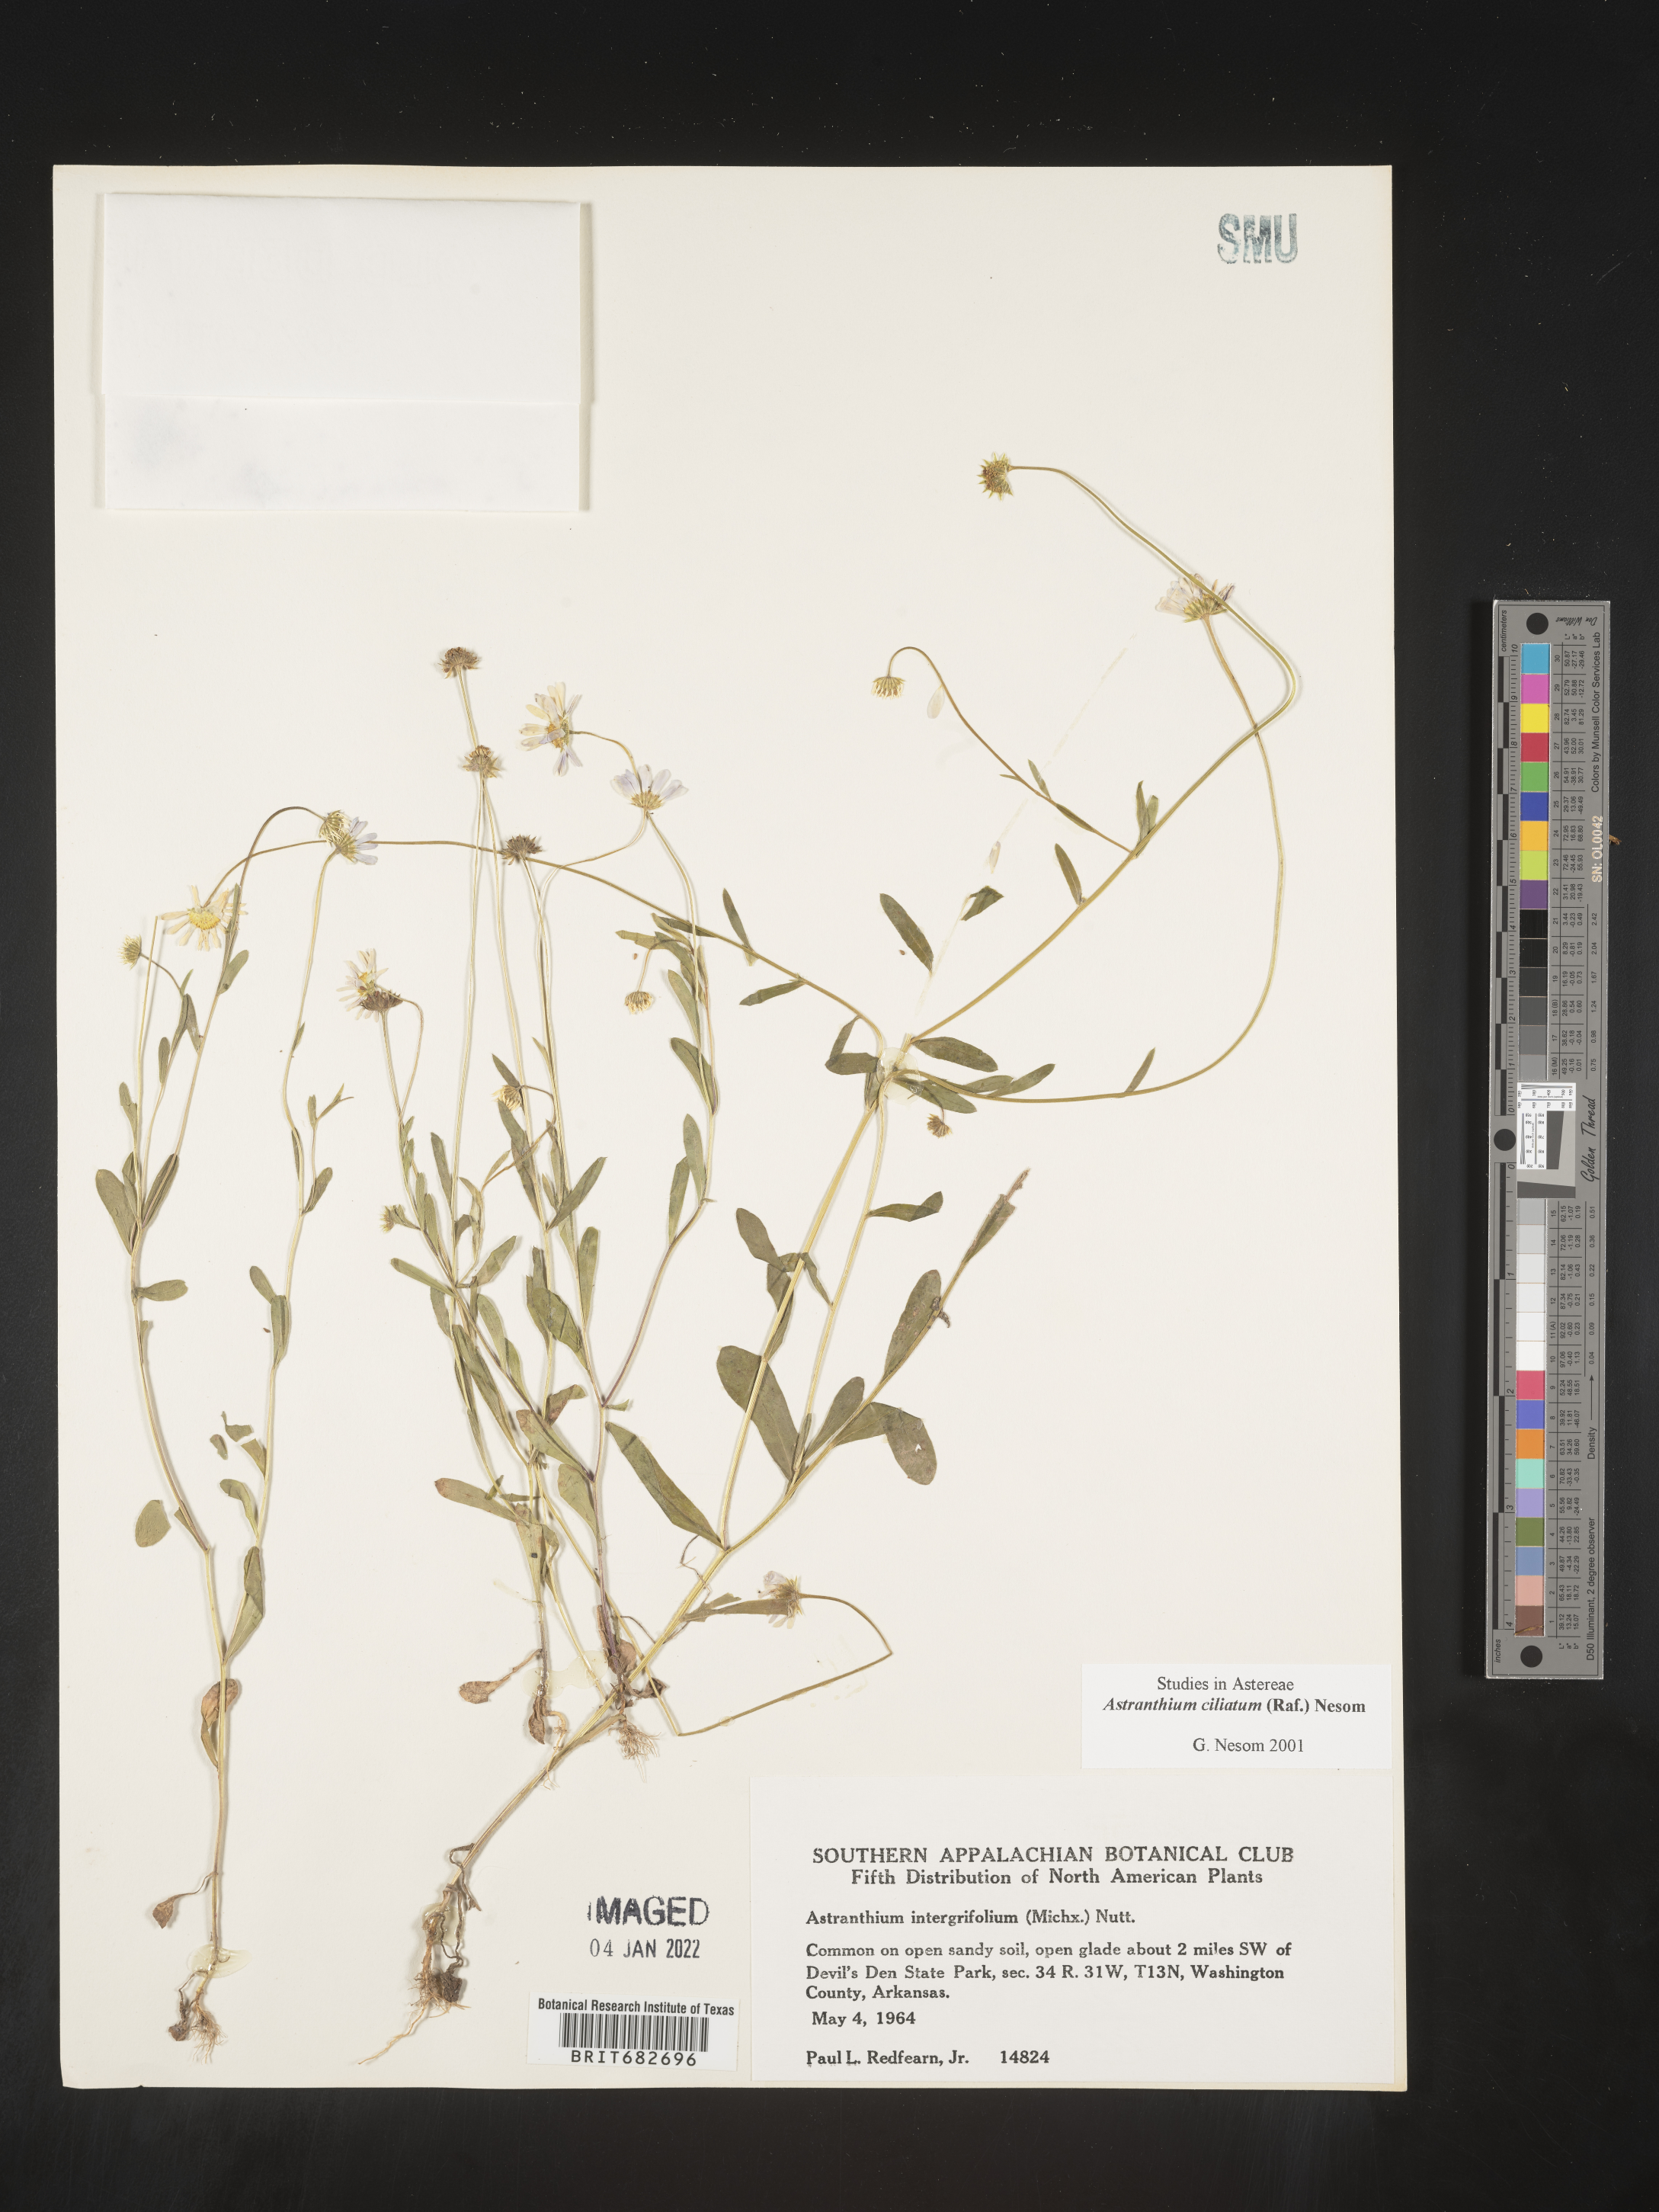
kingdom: Plantae
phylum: Tracheophyta
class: Magnoliopsida
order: Asterales
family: Asteraceae
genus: Astranthium
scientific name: Astranthium ciliatum
